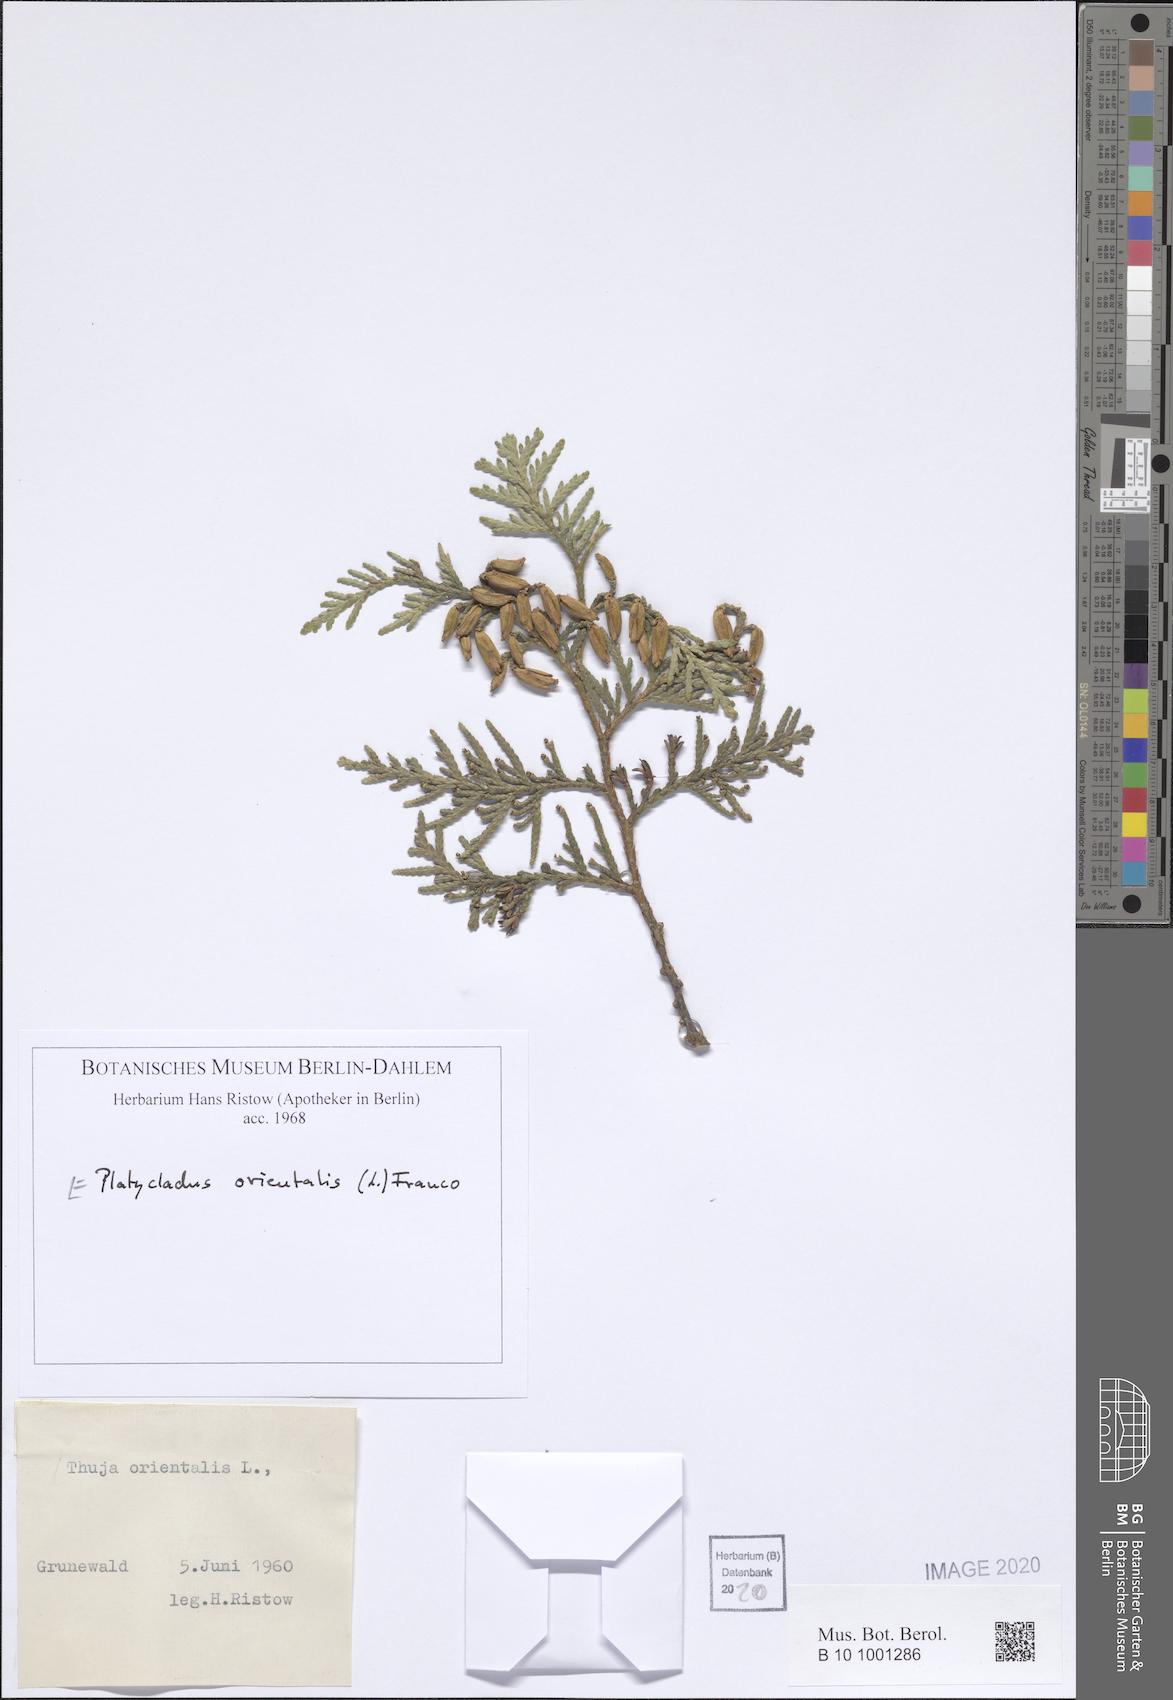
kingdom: Plantae
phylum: Tracheophyta
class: Pinopsida
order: Pinales
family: Cupressaceae
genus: Platycladus
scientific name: Platycladus orientalis
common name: Chinese thuja
